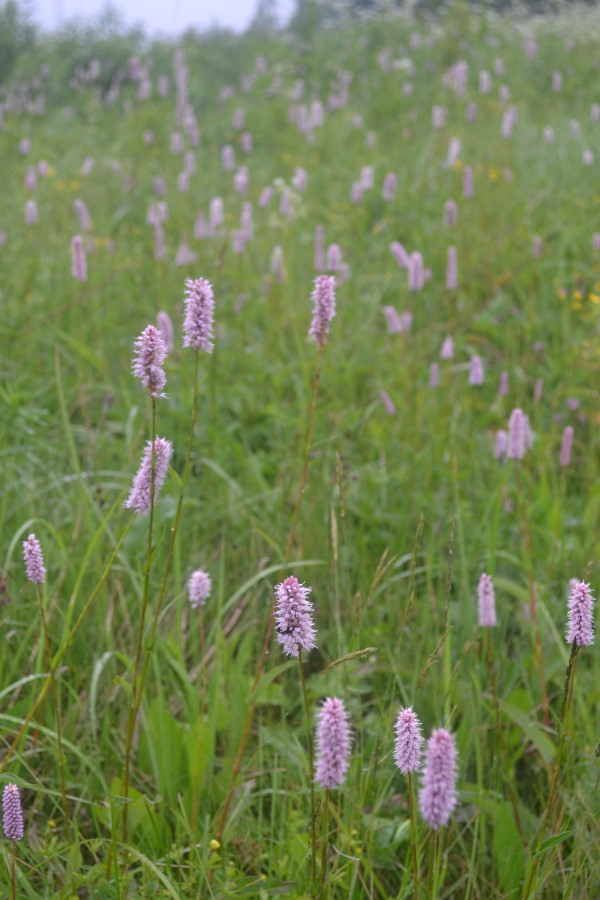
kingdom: Plantae
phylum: Tracheophyta
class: Magnoliopsida
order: Caryophyllales
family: Polygonaceae
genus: Bistorta
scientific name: Bistorta officinalis
